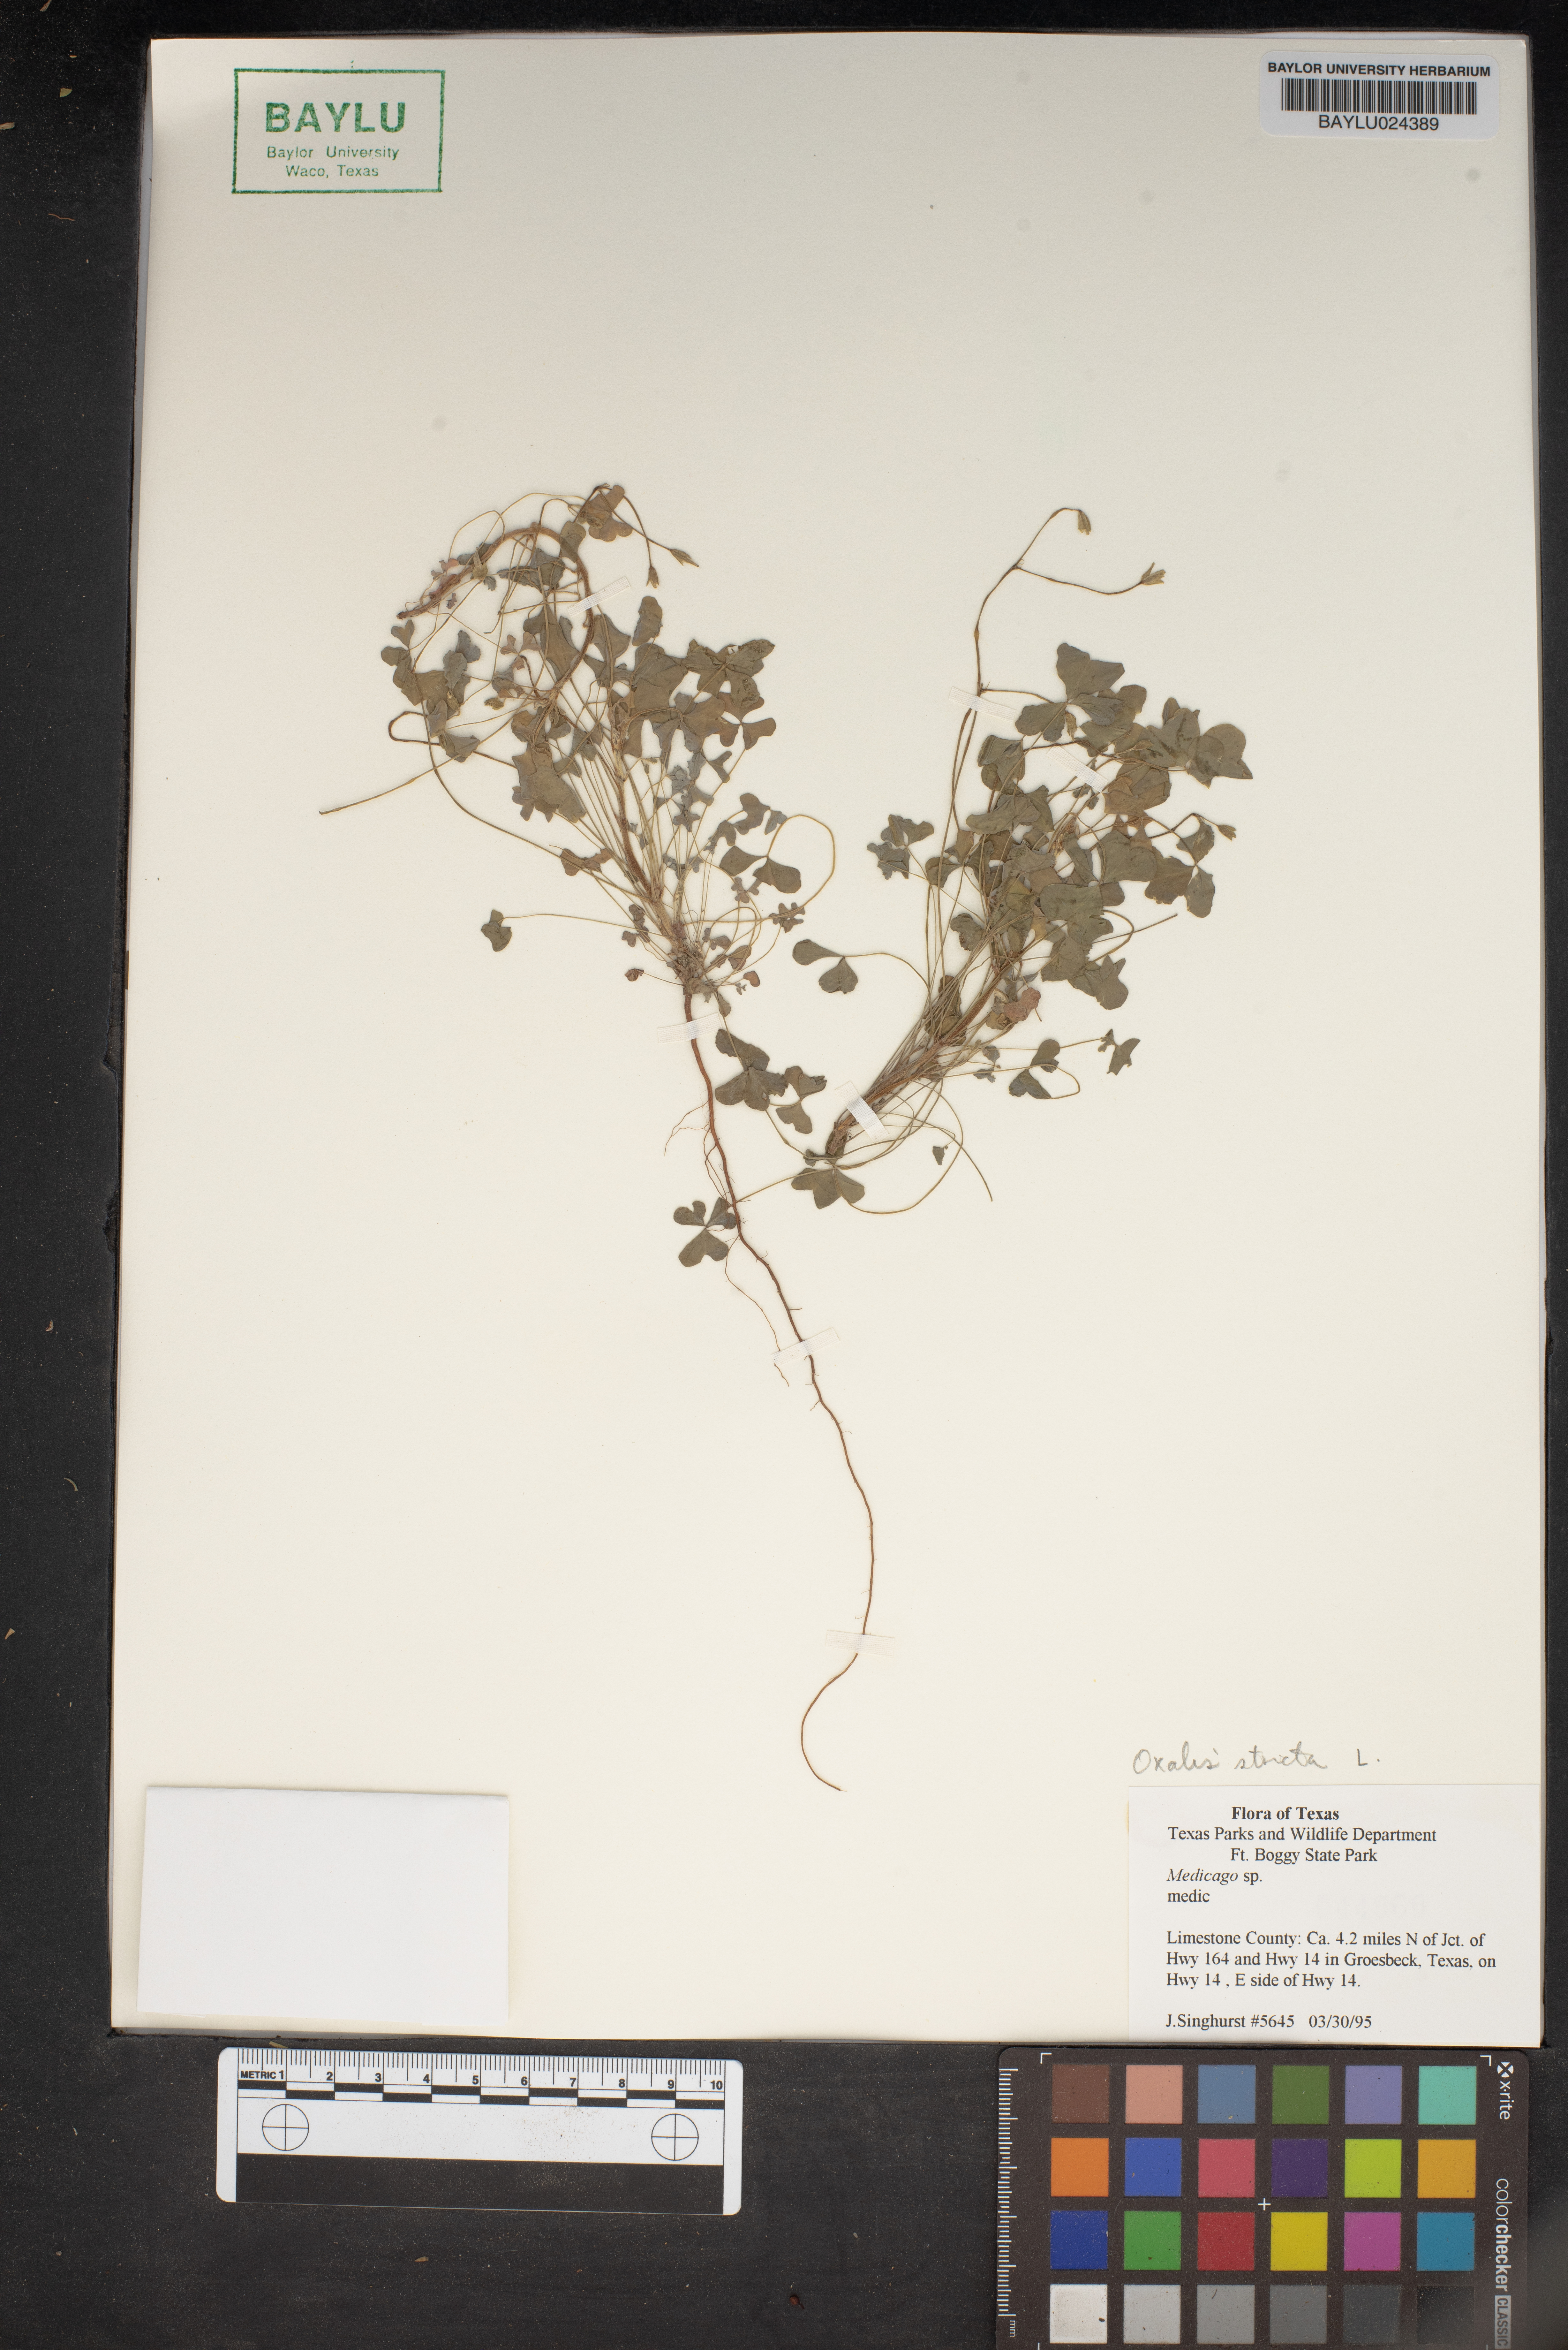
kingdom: Plantae
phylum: Tracheophyta
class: Magnoliopsida
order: Fabales
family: Fabaceae
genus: Medicago
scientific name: Medicago
